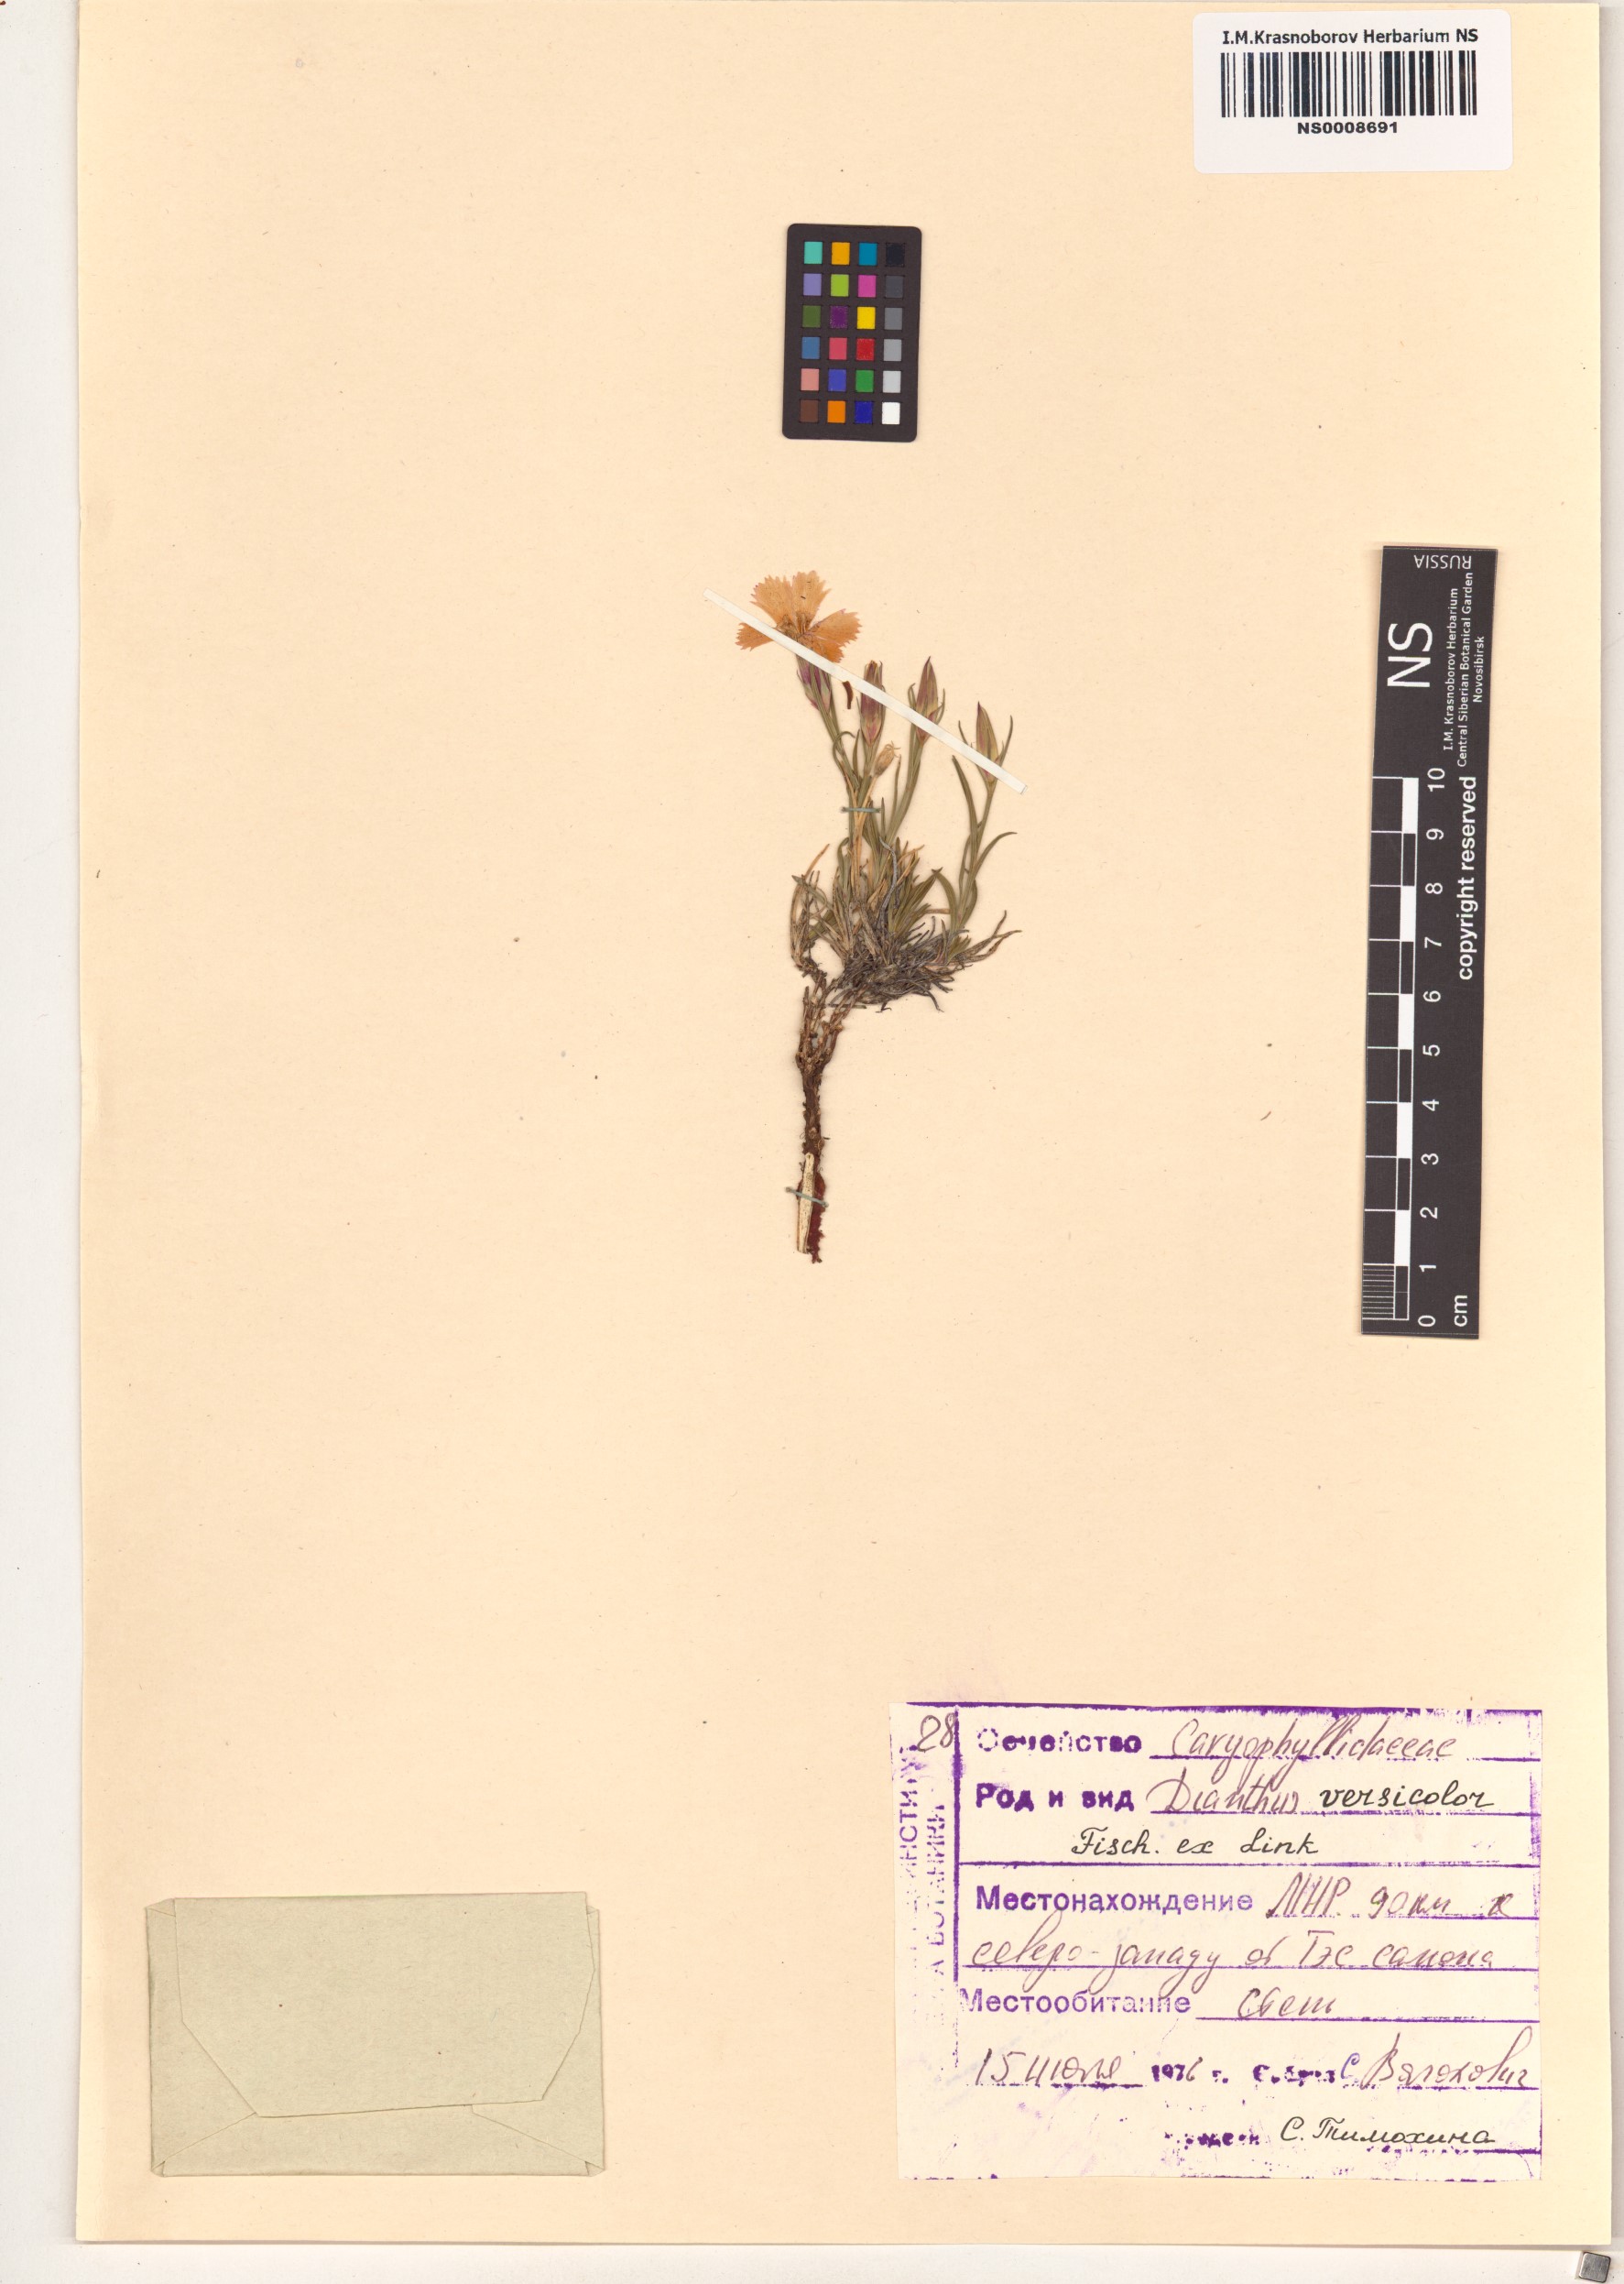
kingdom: Plantae
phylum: Tracheophyta
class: Magnoliopsida
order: Caryophyllales
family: Caryophyllaceae
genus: Dianthus
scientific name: Dianthus chinensis
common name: Rainbow pink
